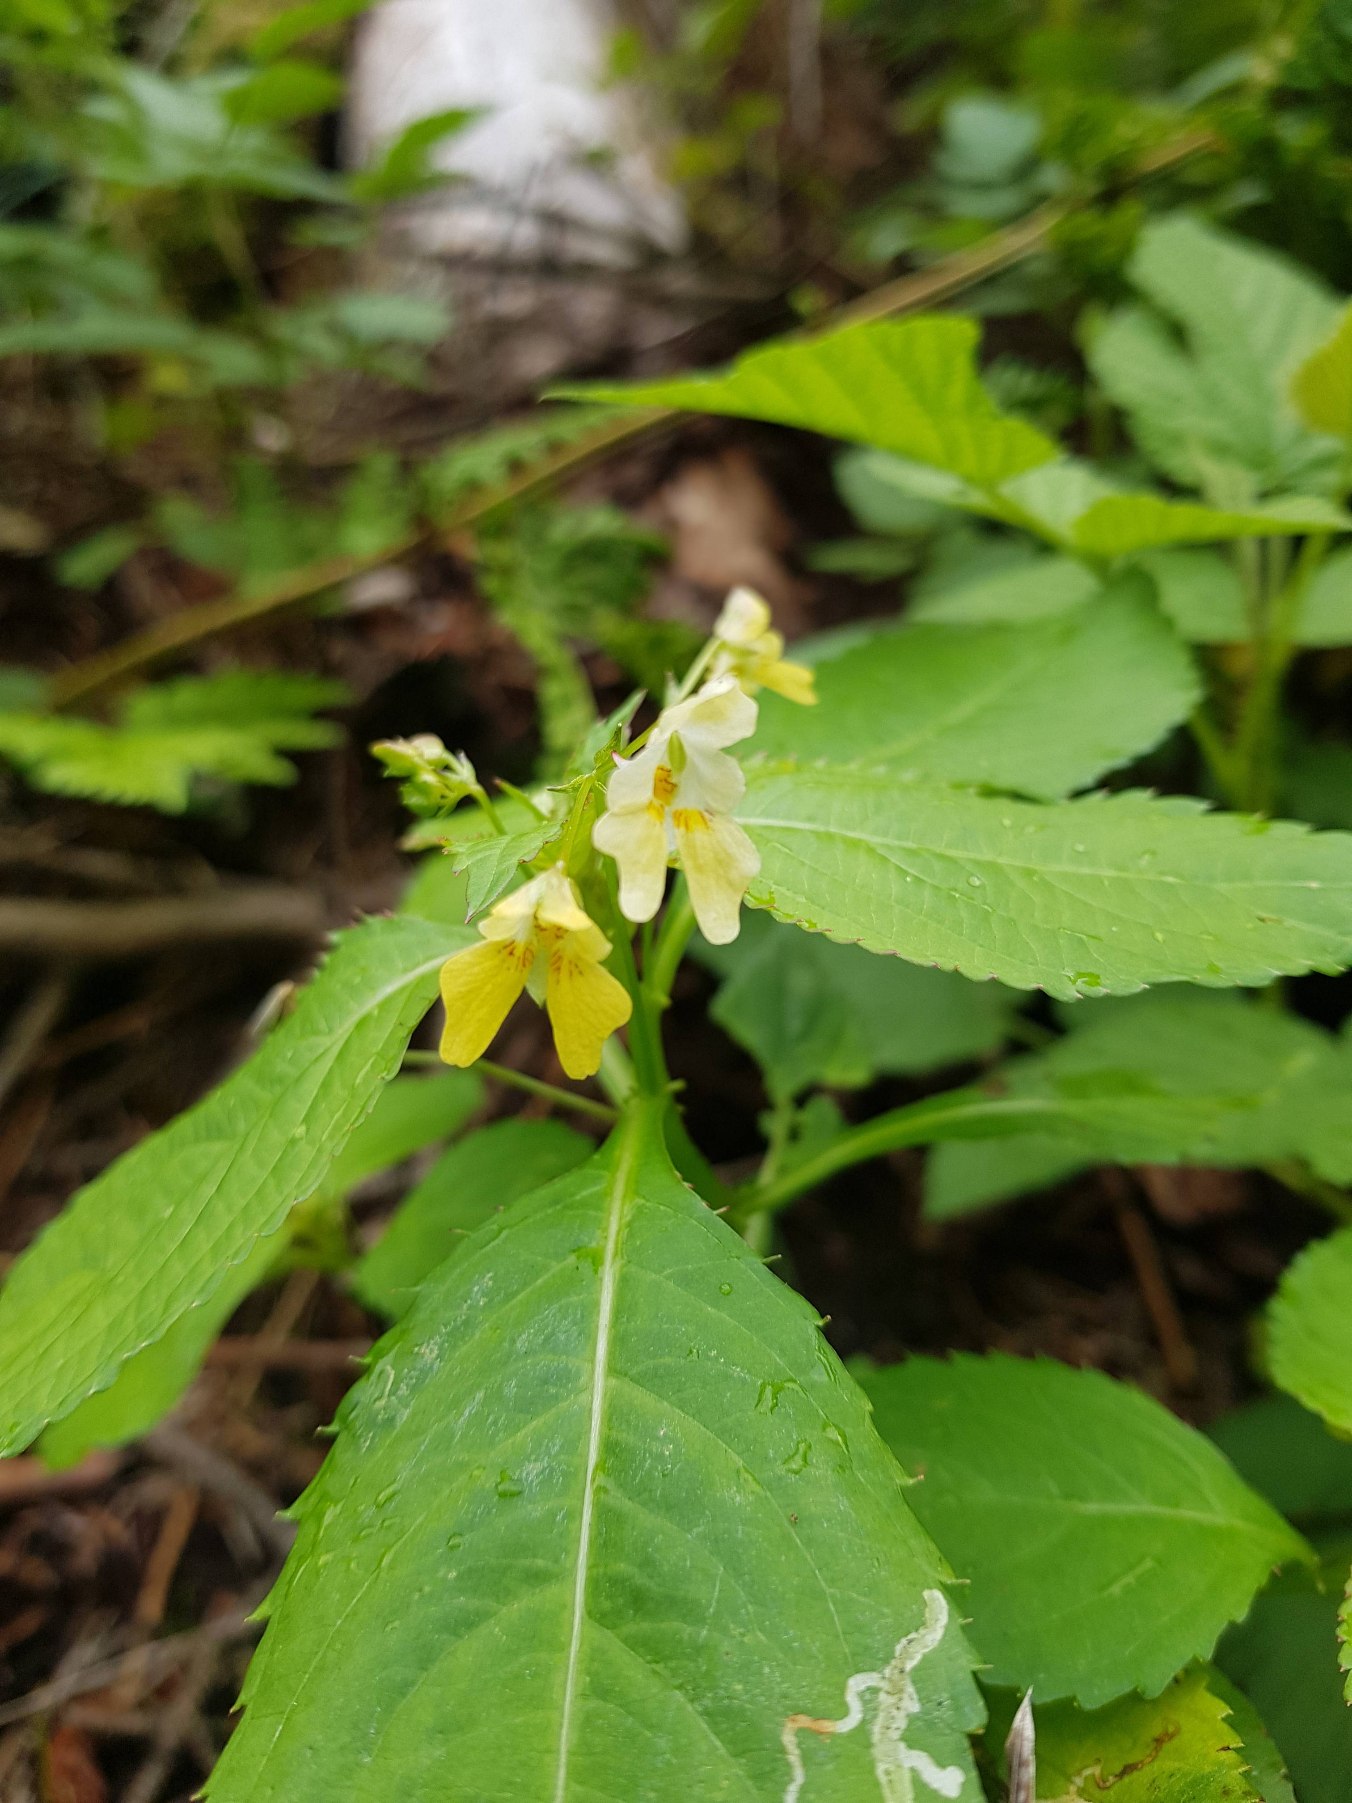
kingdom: Plantae
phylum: Tracheophyta
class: Magnoliopsida
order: Ericales
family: Balsaminaceae
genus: Impatiens
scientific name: Impatiens parviflora
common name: Småblomstret balsamin
